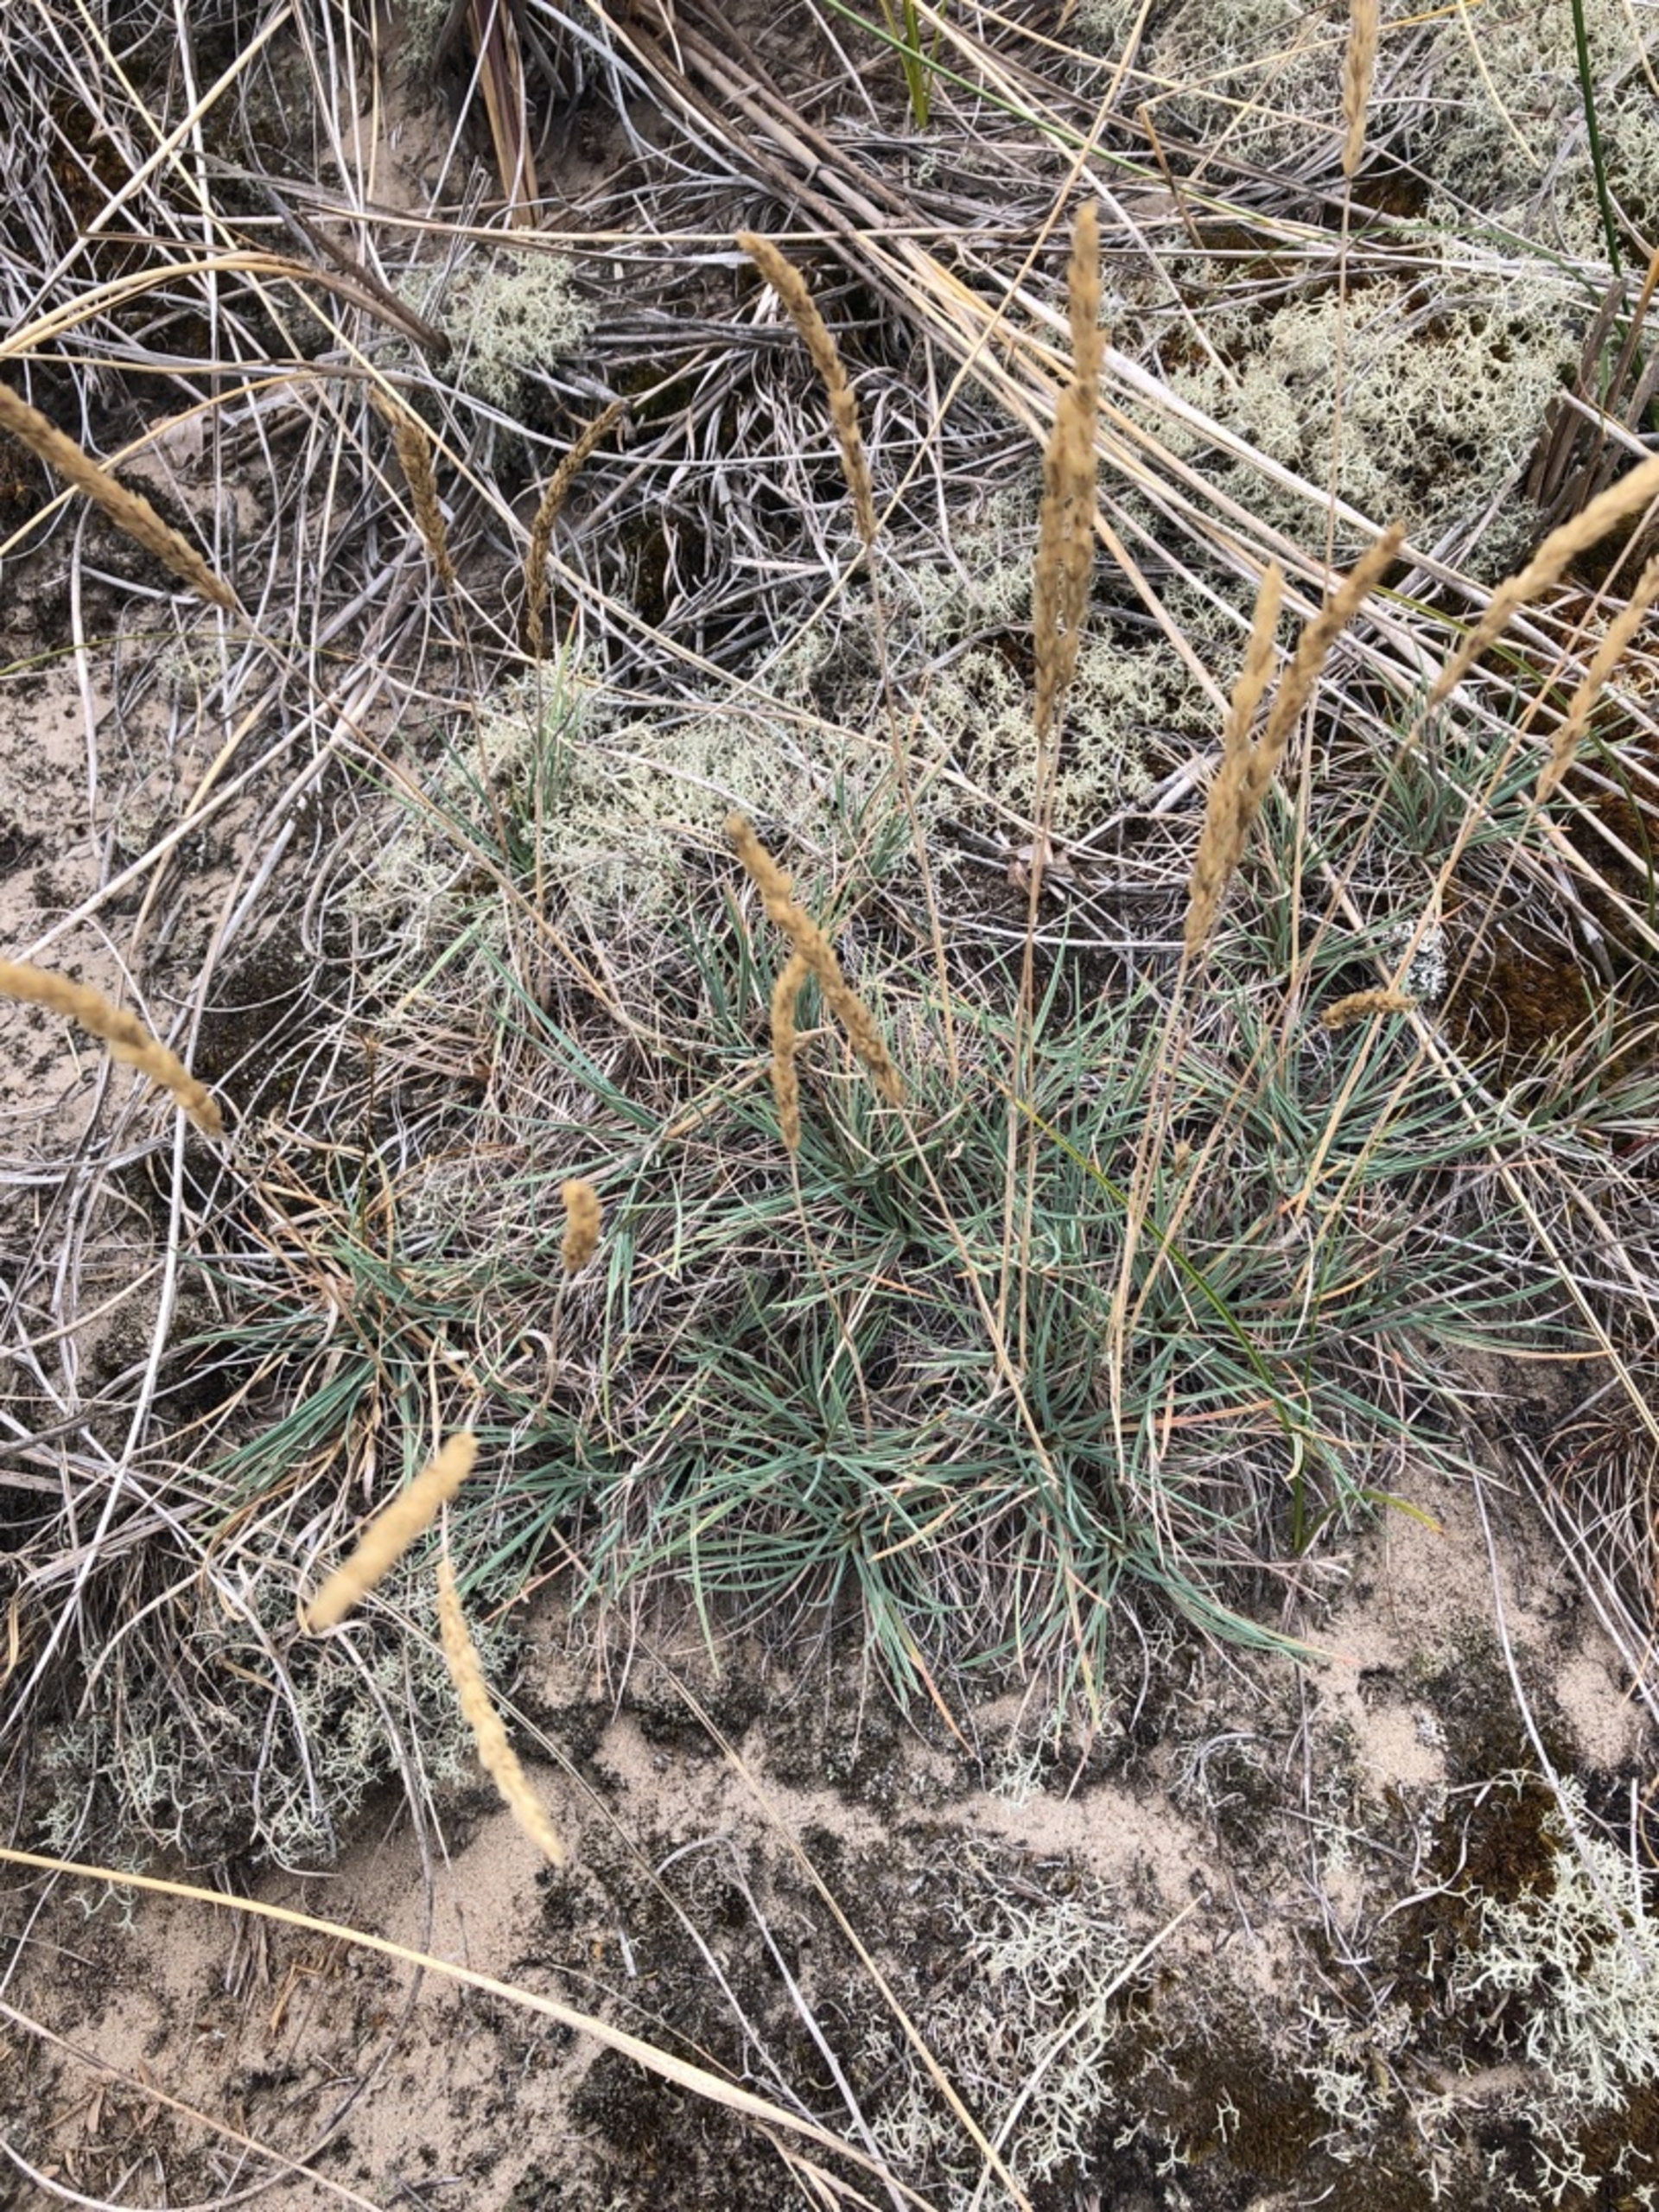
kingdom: Plantae
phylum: Tracheophyta
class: Liliopsida
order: Poales
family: Poaceae
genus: Koeleria
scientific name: Koeleria glauca
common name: Klit-kambunke
